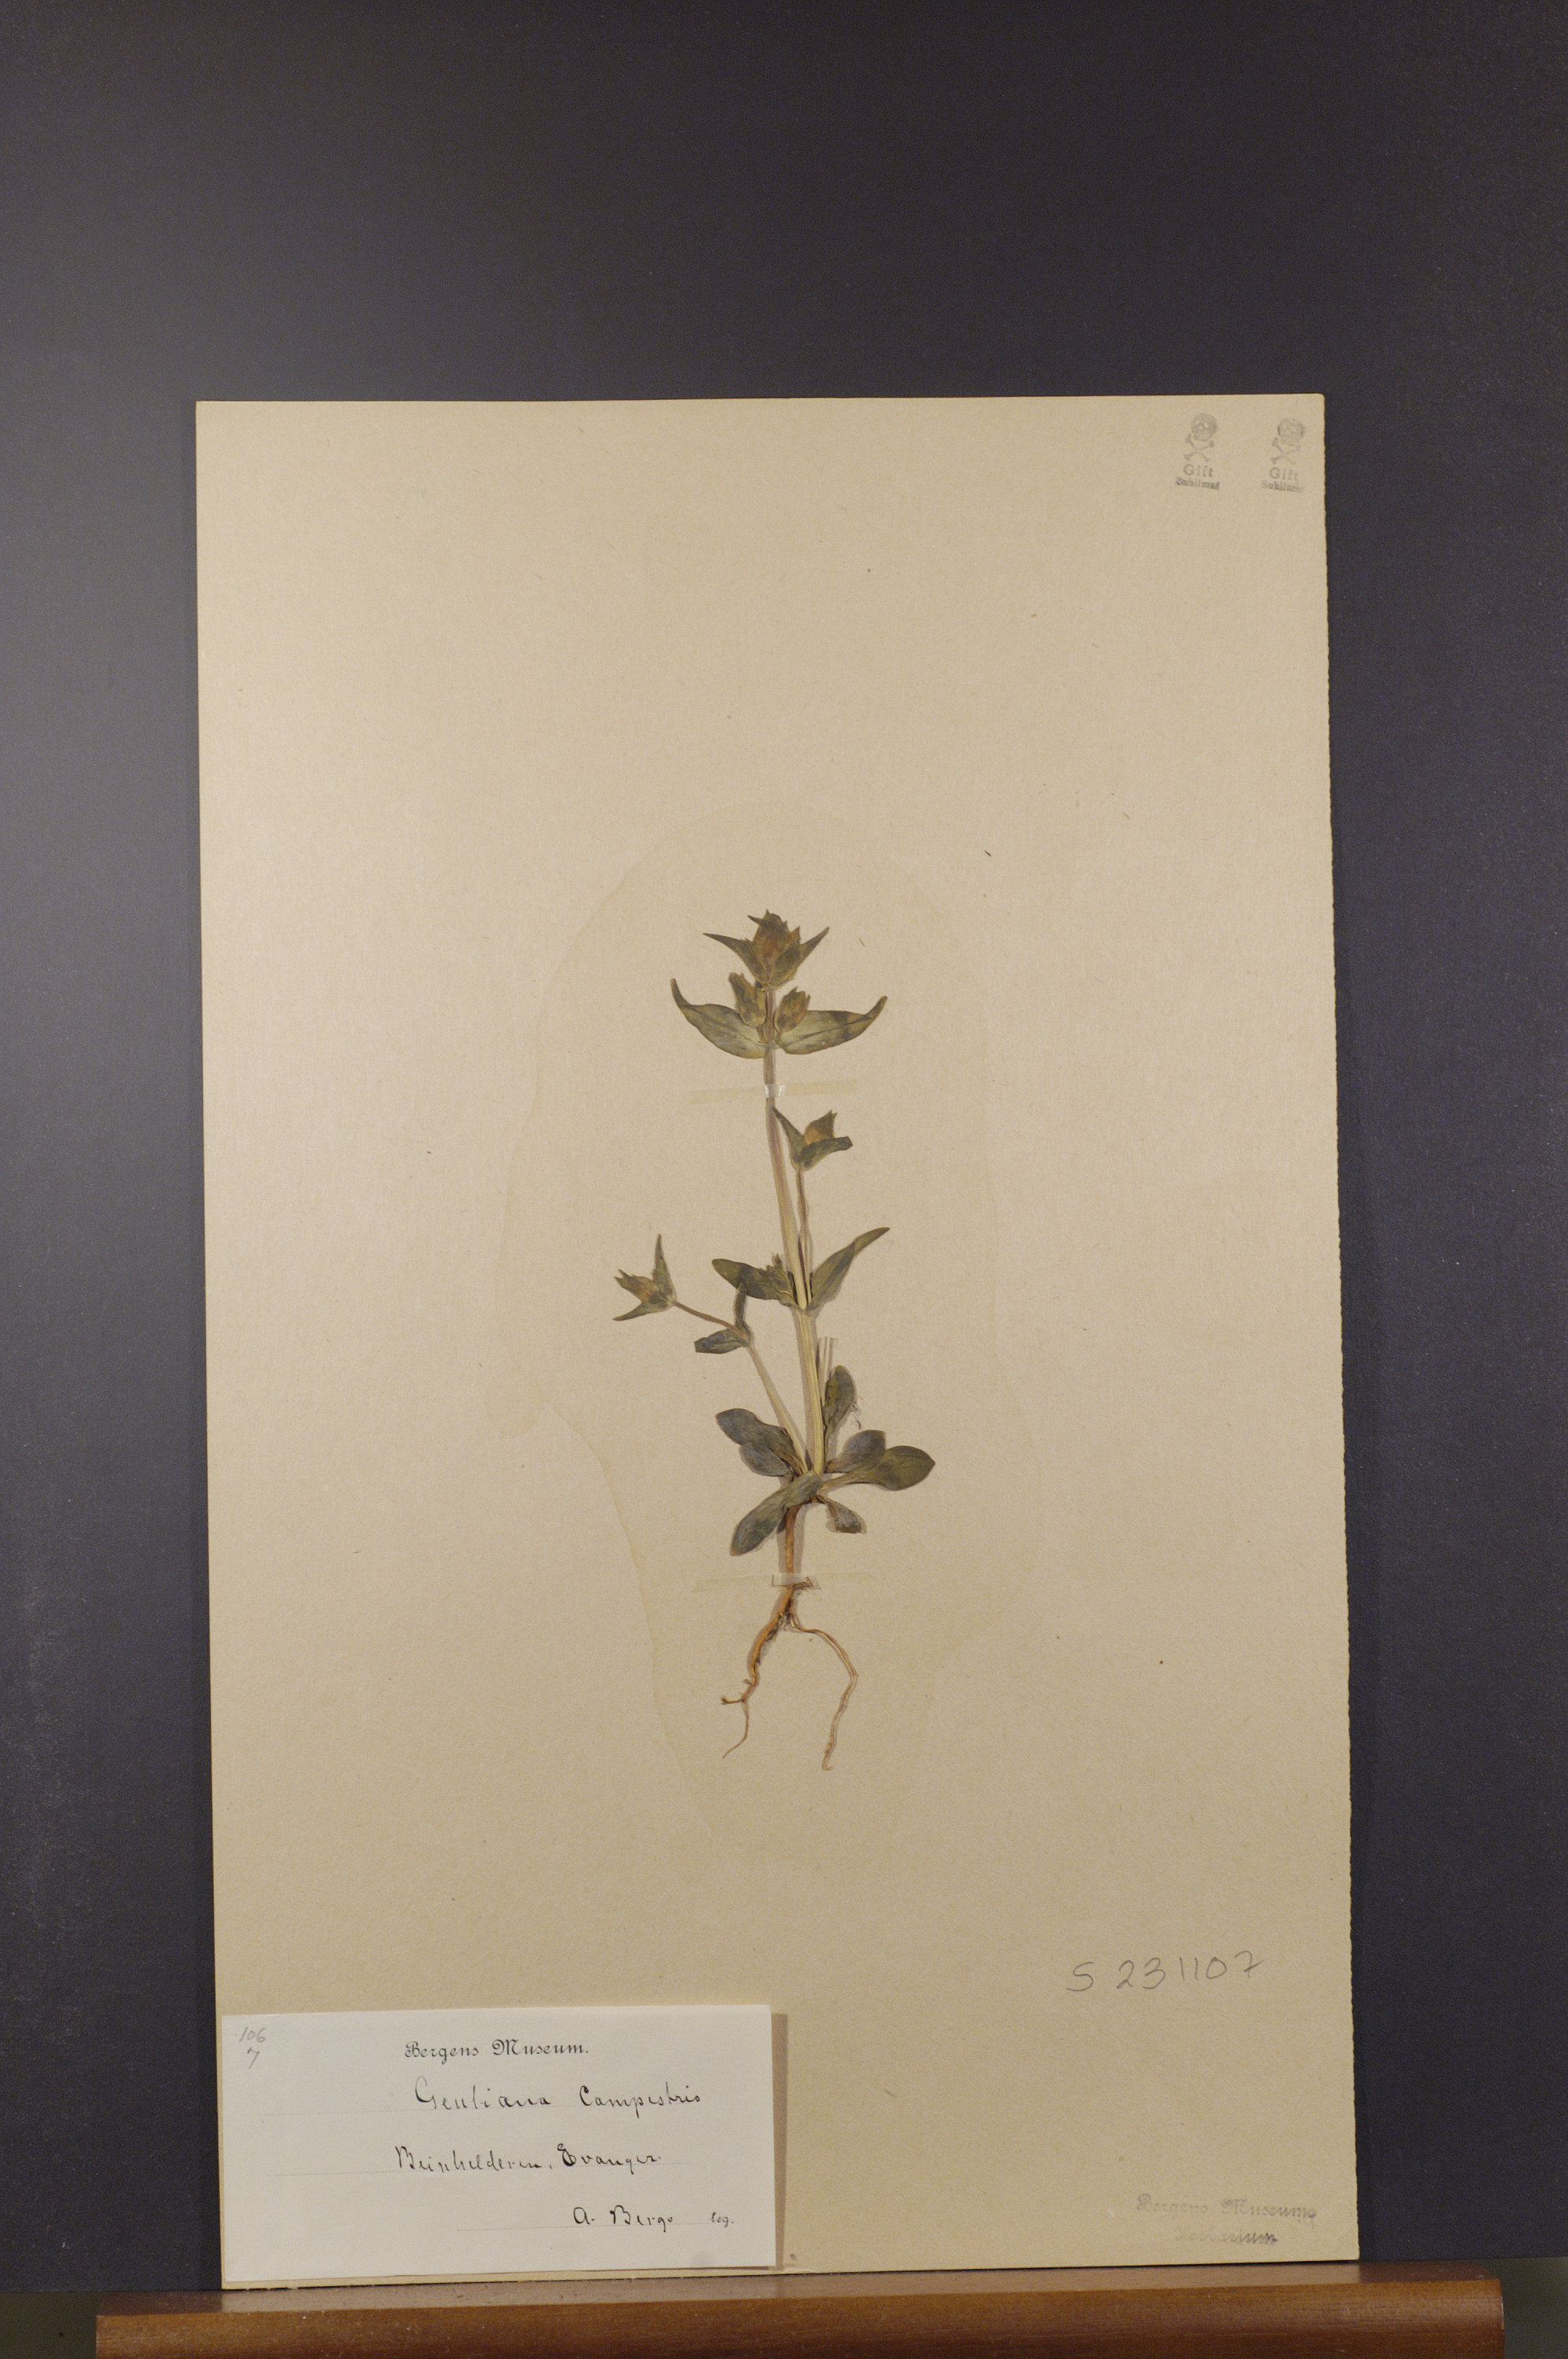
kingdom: Plantae
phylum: Tracheophyta
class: Magnoliopsida
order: Gentianales
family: Gentianaceae
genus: Gentianella
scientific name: Gentianella campestris
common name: Field gentian
